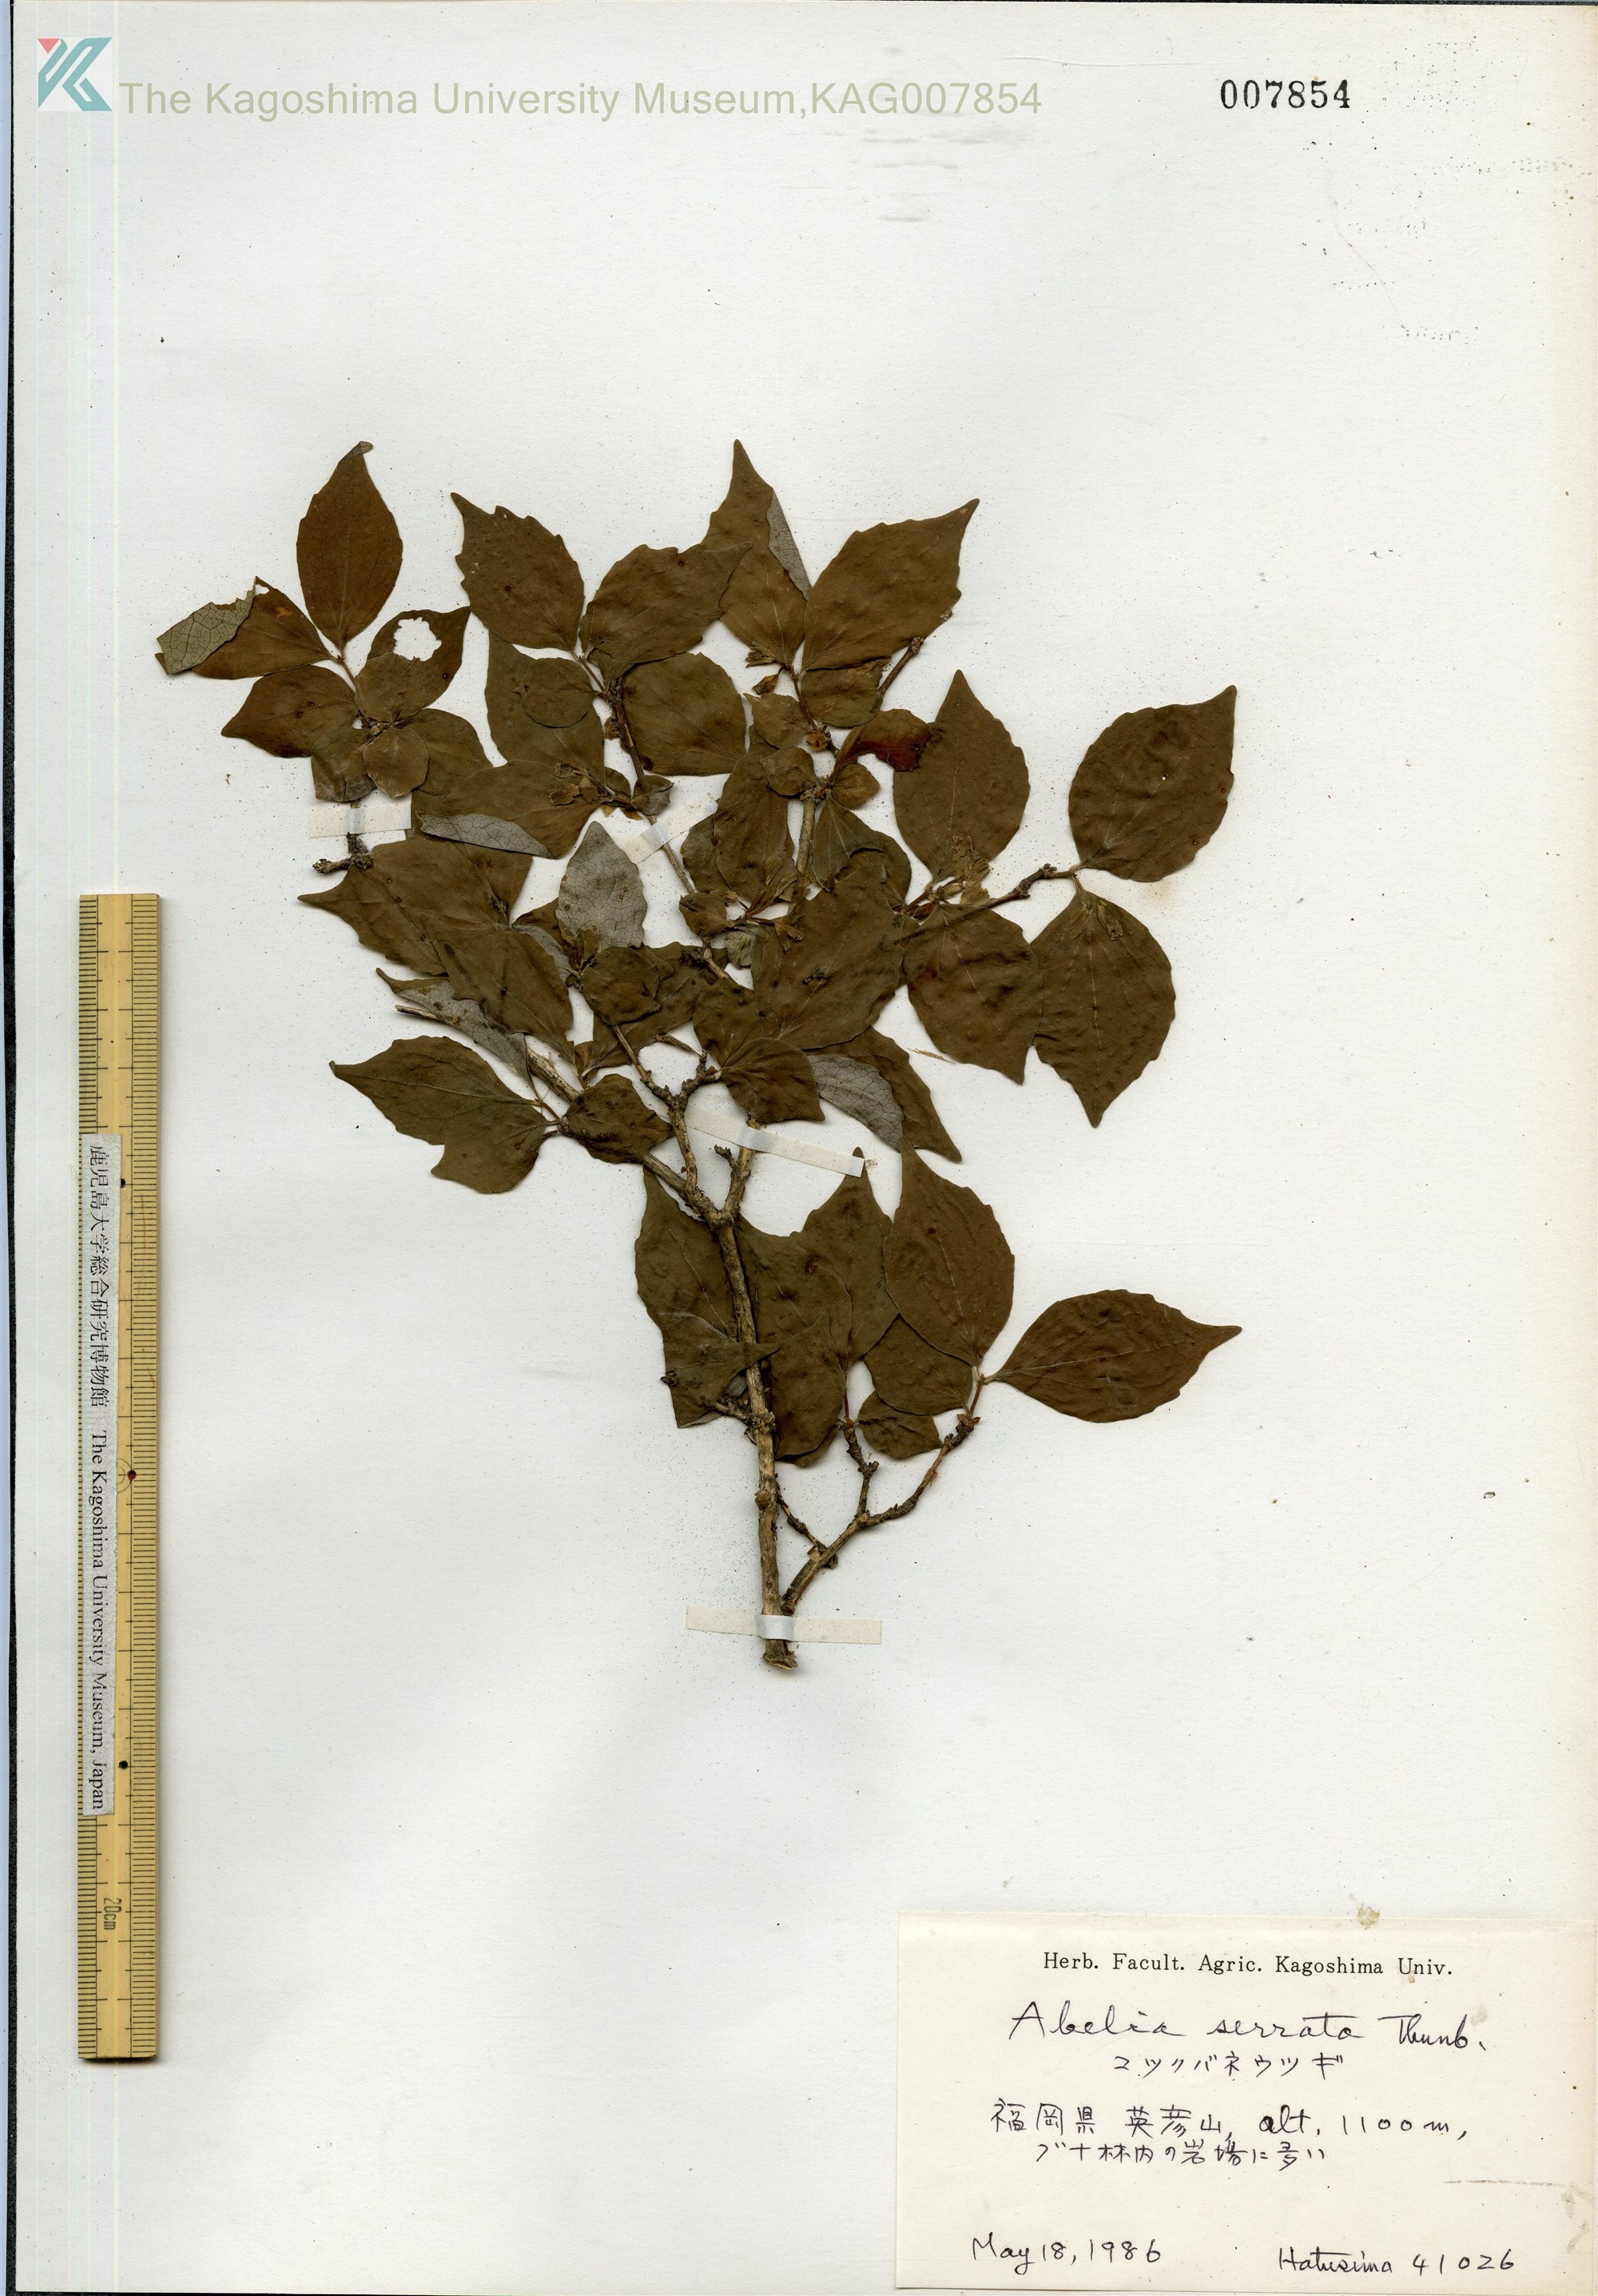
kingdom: Plantae
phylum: Tracheophyta
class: Magnoliopsida
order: Dipsacales
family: Caprifoliaceae
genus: Diabelia
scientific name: Diabelia serrata
